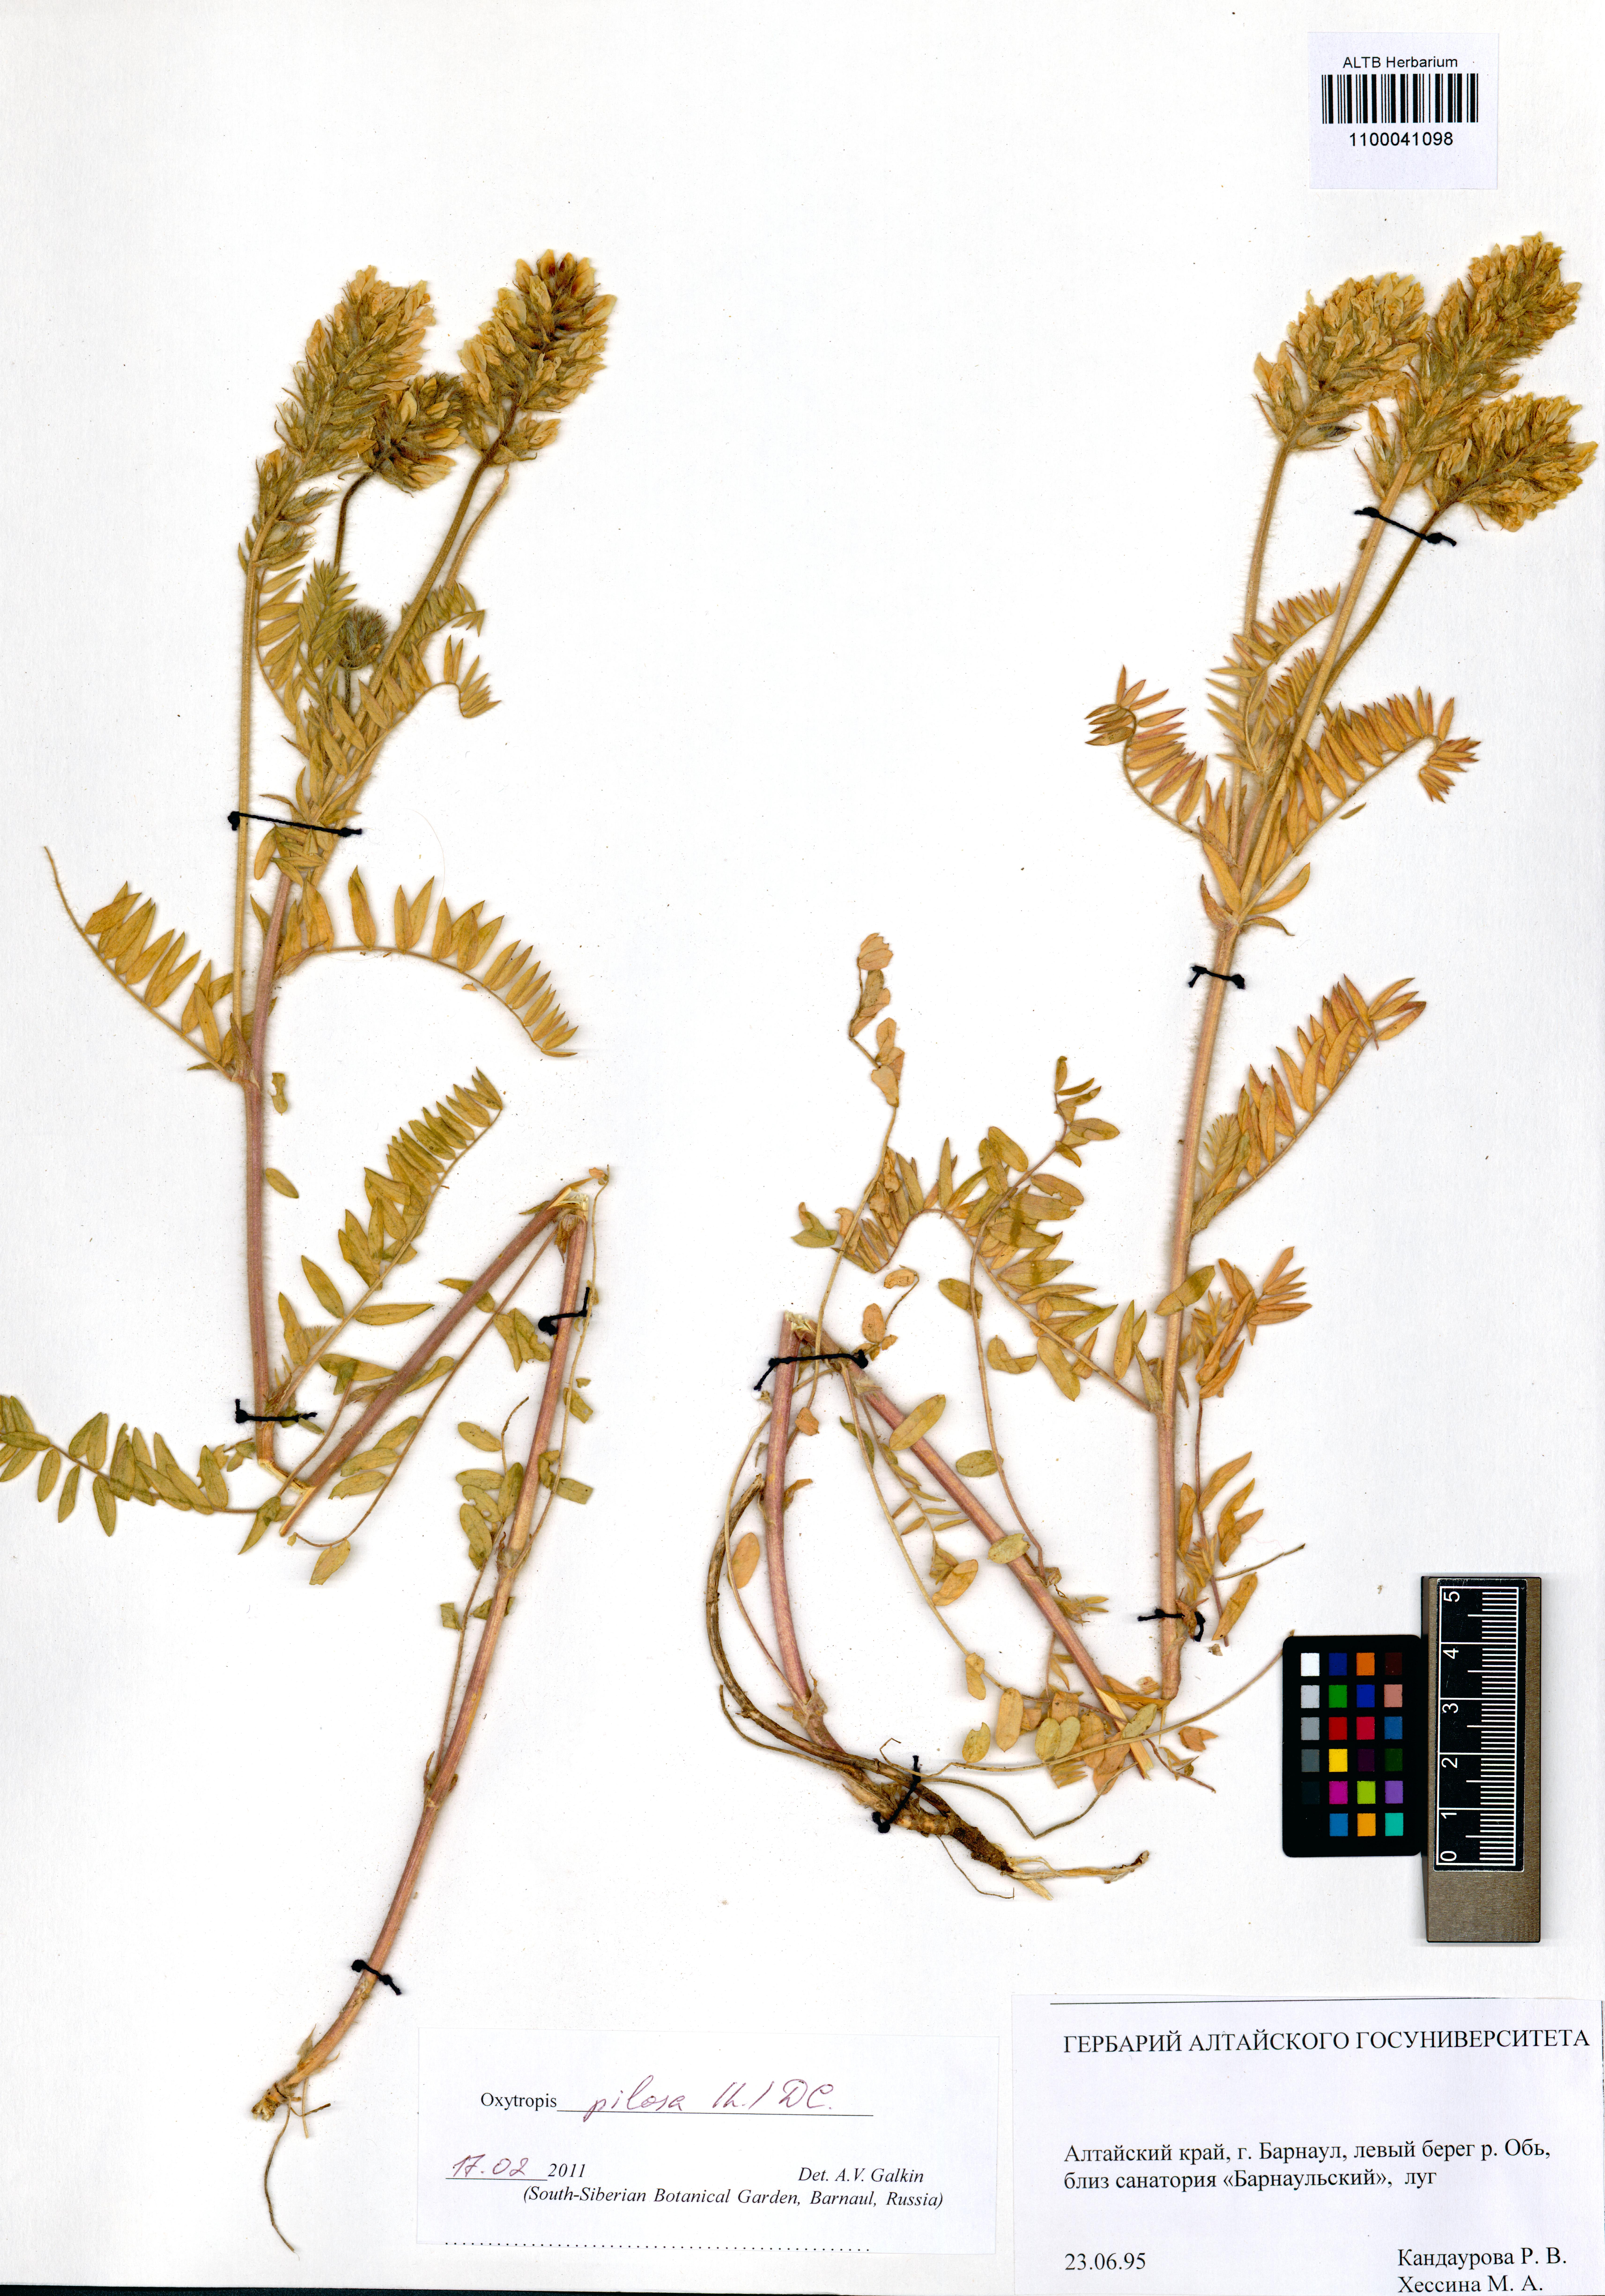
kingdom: Plantae
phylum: Tracheophyta
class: Magnoliopsida
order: Fabales
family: Fabaceae
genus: Oxytropis
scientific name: Oxytropis pilosa
